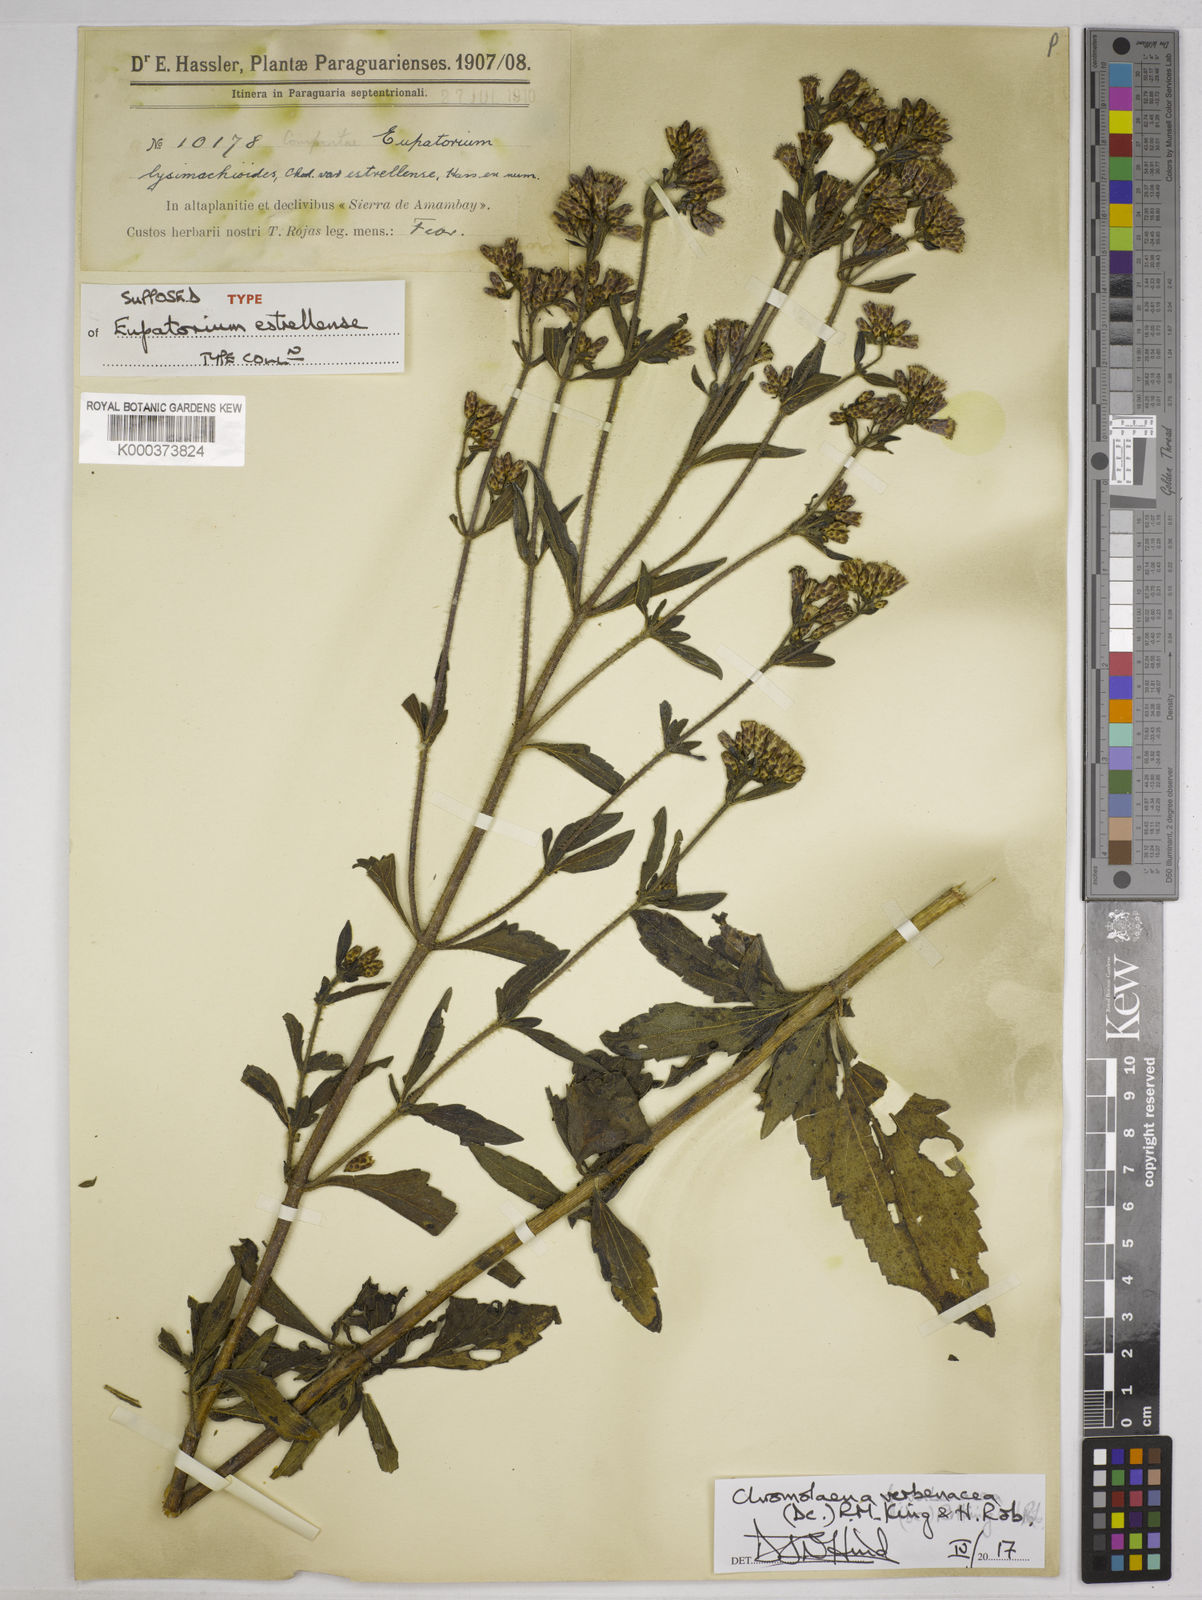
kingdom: Plantae
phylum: Tracheophyta
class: Magnoliopsida
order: Asterales
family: Asteraceae
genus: Chromolaena
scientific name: Chromolaena verbenacea
